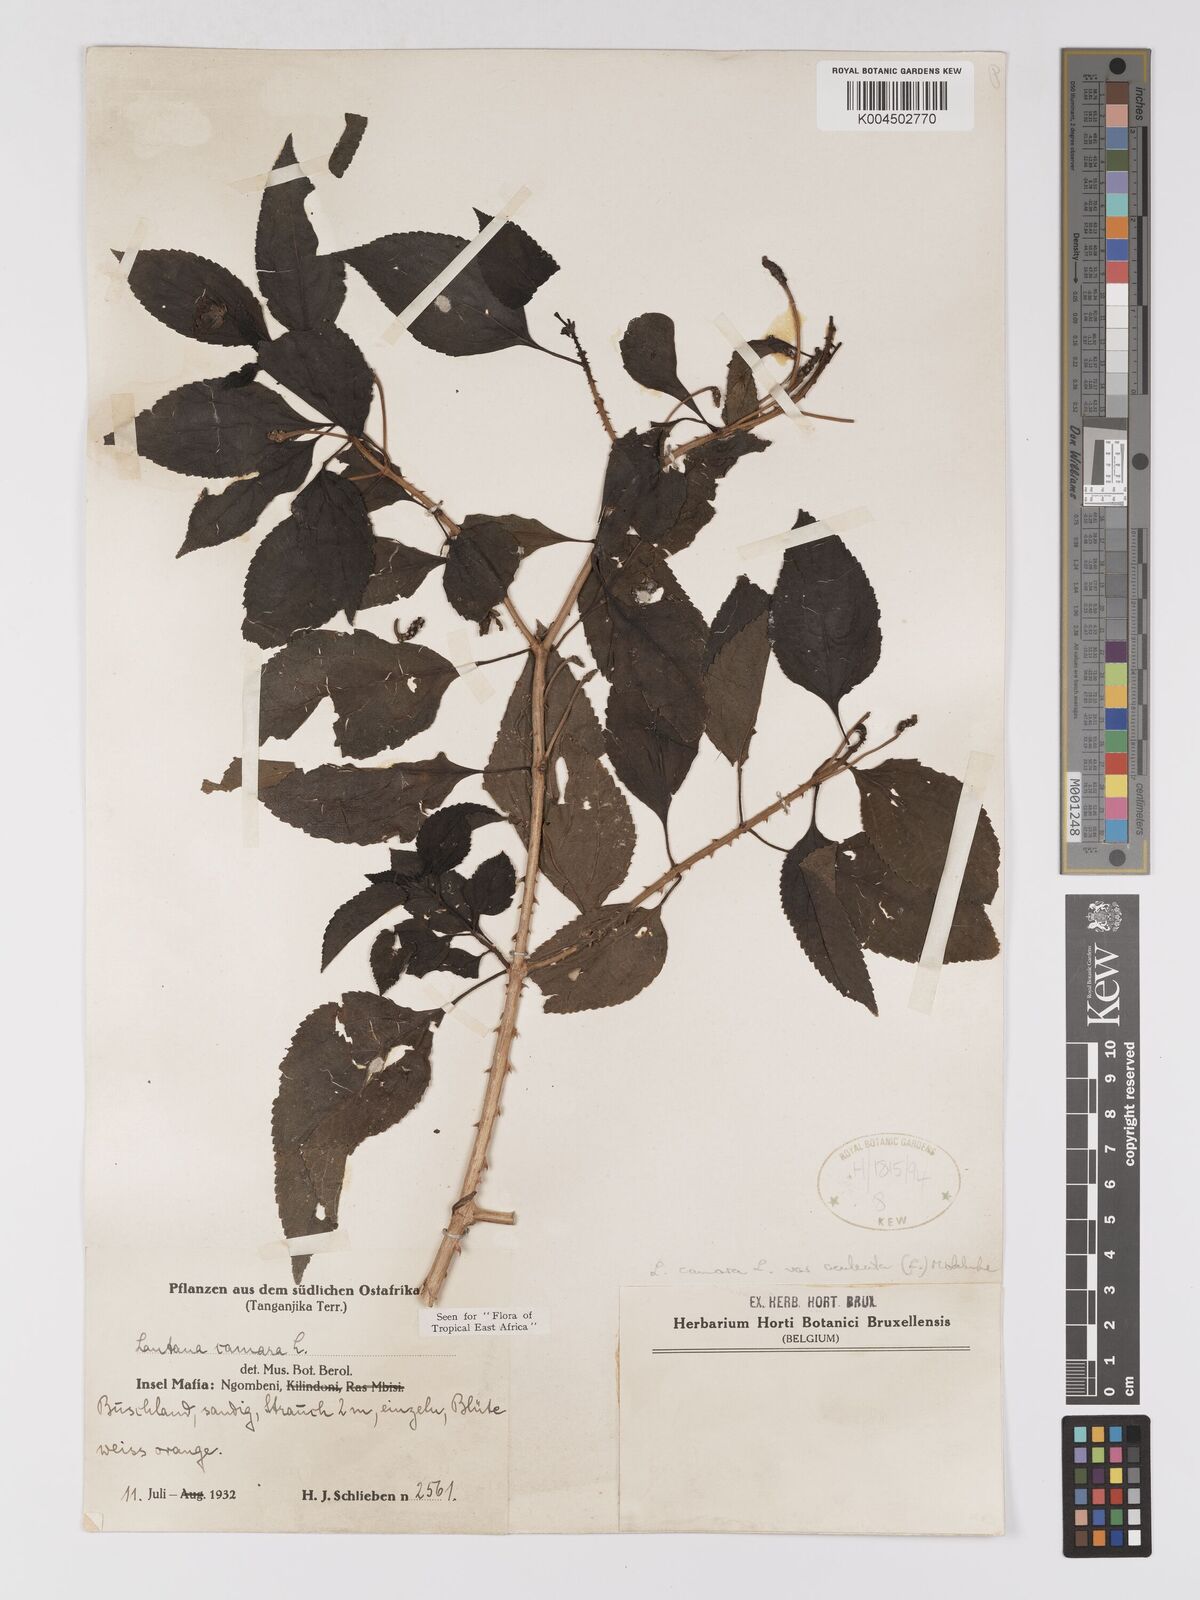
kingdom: Plantae
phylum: Tracheophyta
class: Magnoliopsida
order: Lamiales
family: Verbenaceae
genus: Lantana
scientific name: Lantana camara
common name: Lantana
